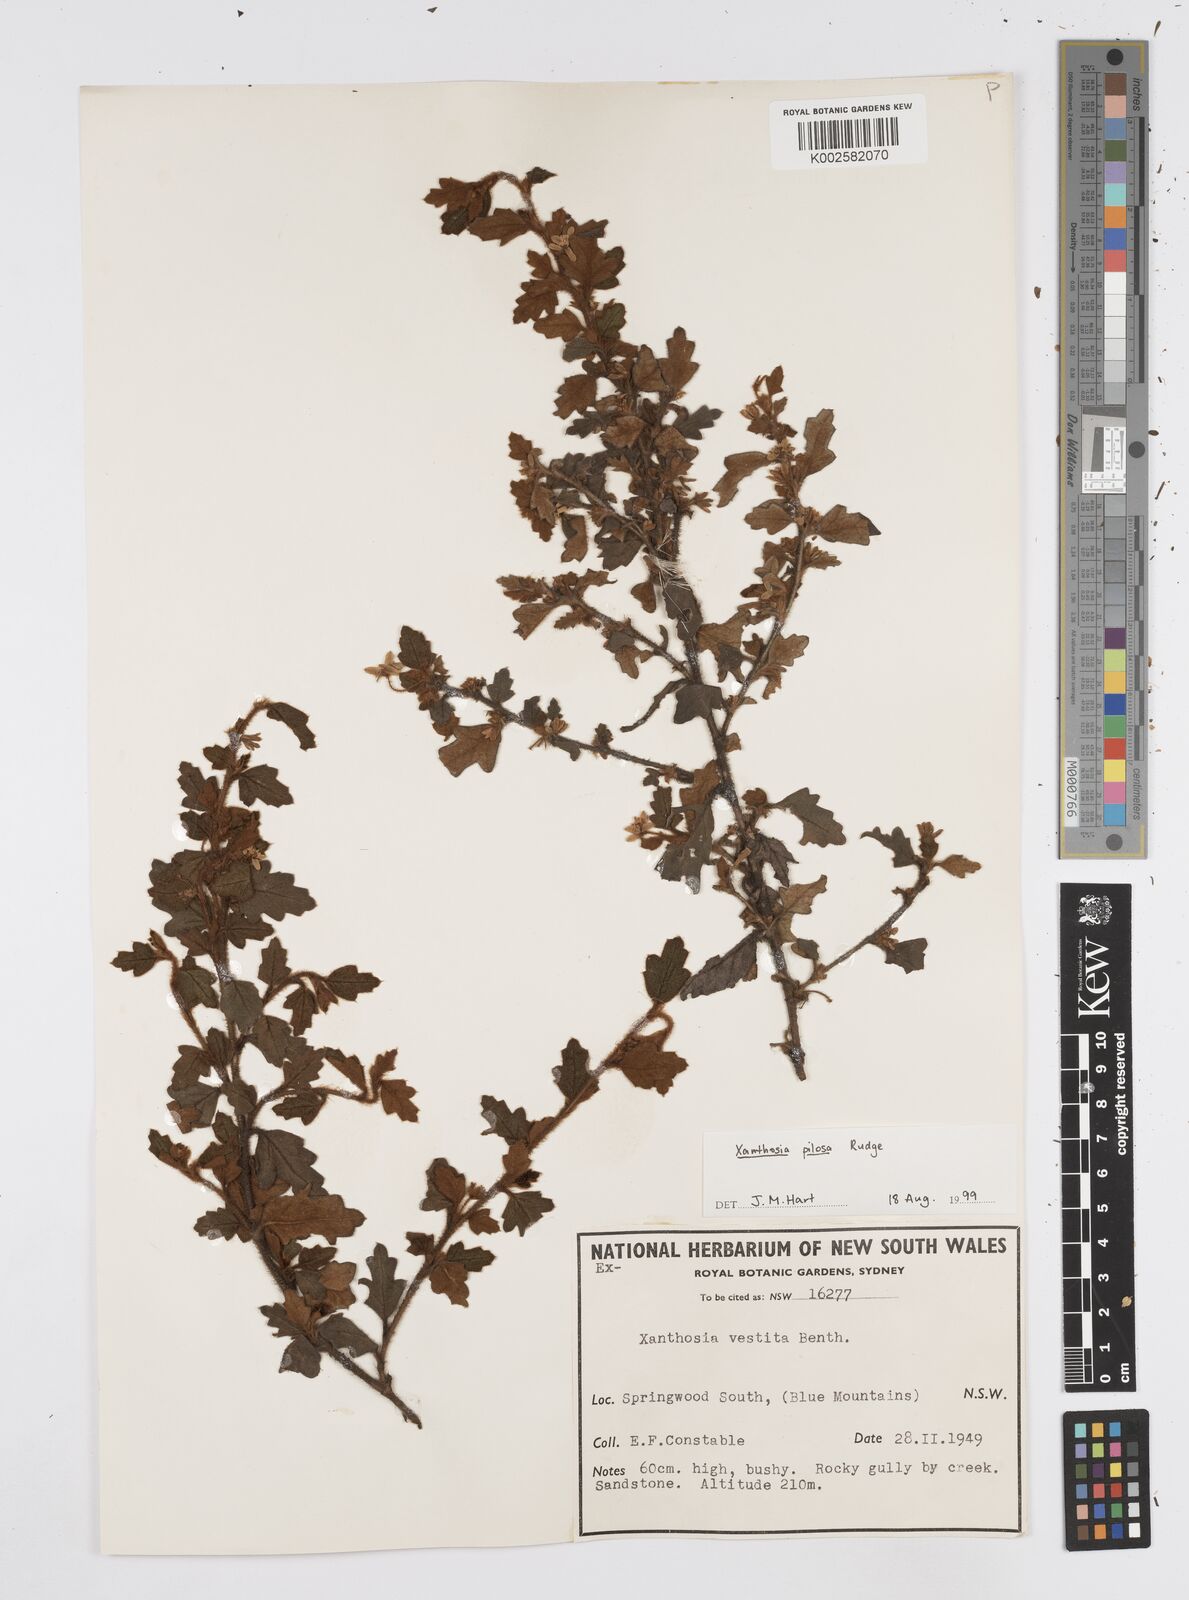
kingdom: Plantae
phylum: Tracheophyta
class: Magnoliopsida
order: Apiales
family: Apiaceae
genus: Xanthosia
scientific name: Xanthosia pilosa
